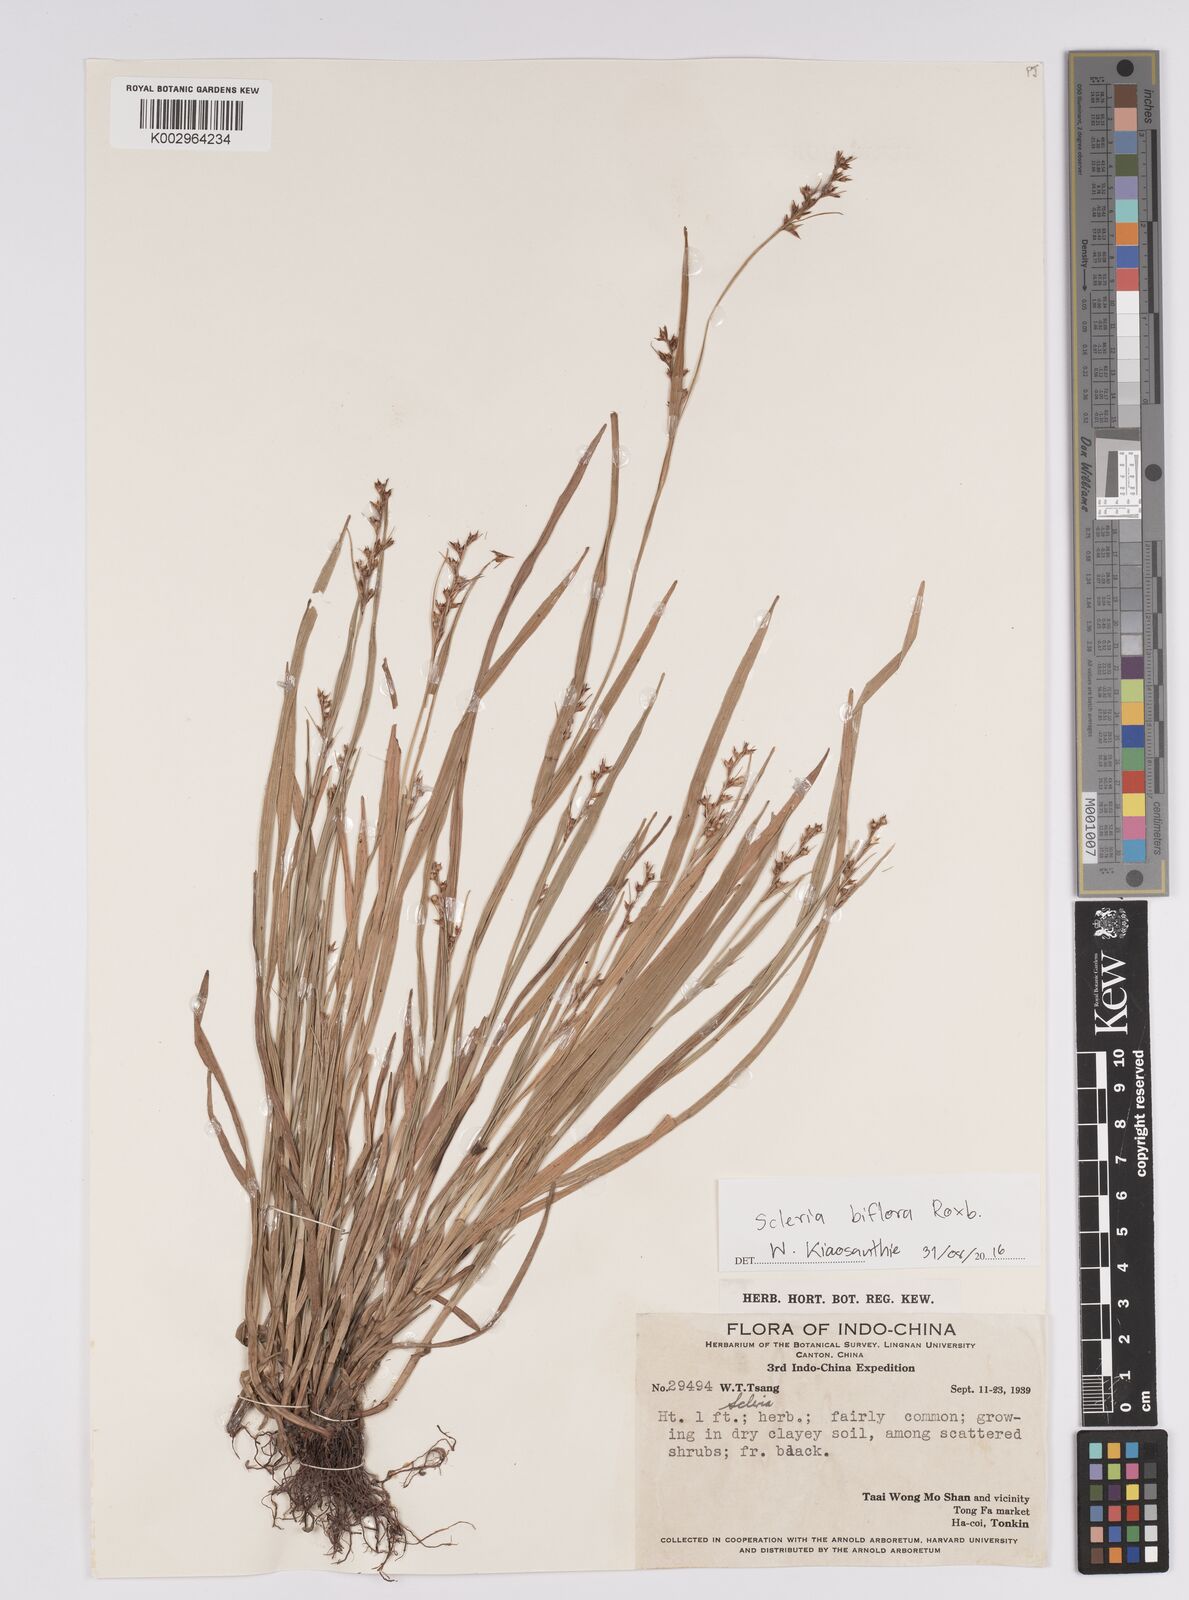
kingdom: Plantae
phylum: Tracheophyta
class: Liliopsida
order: Poales
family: Cyperaceae
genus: Scleria
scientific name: Scleria terrestris
